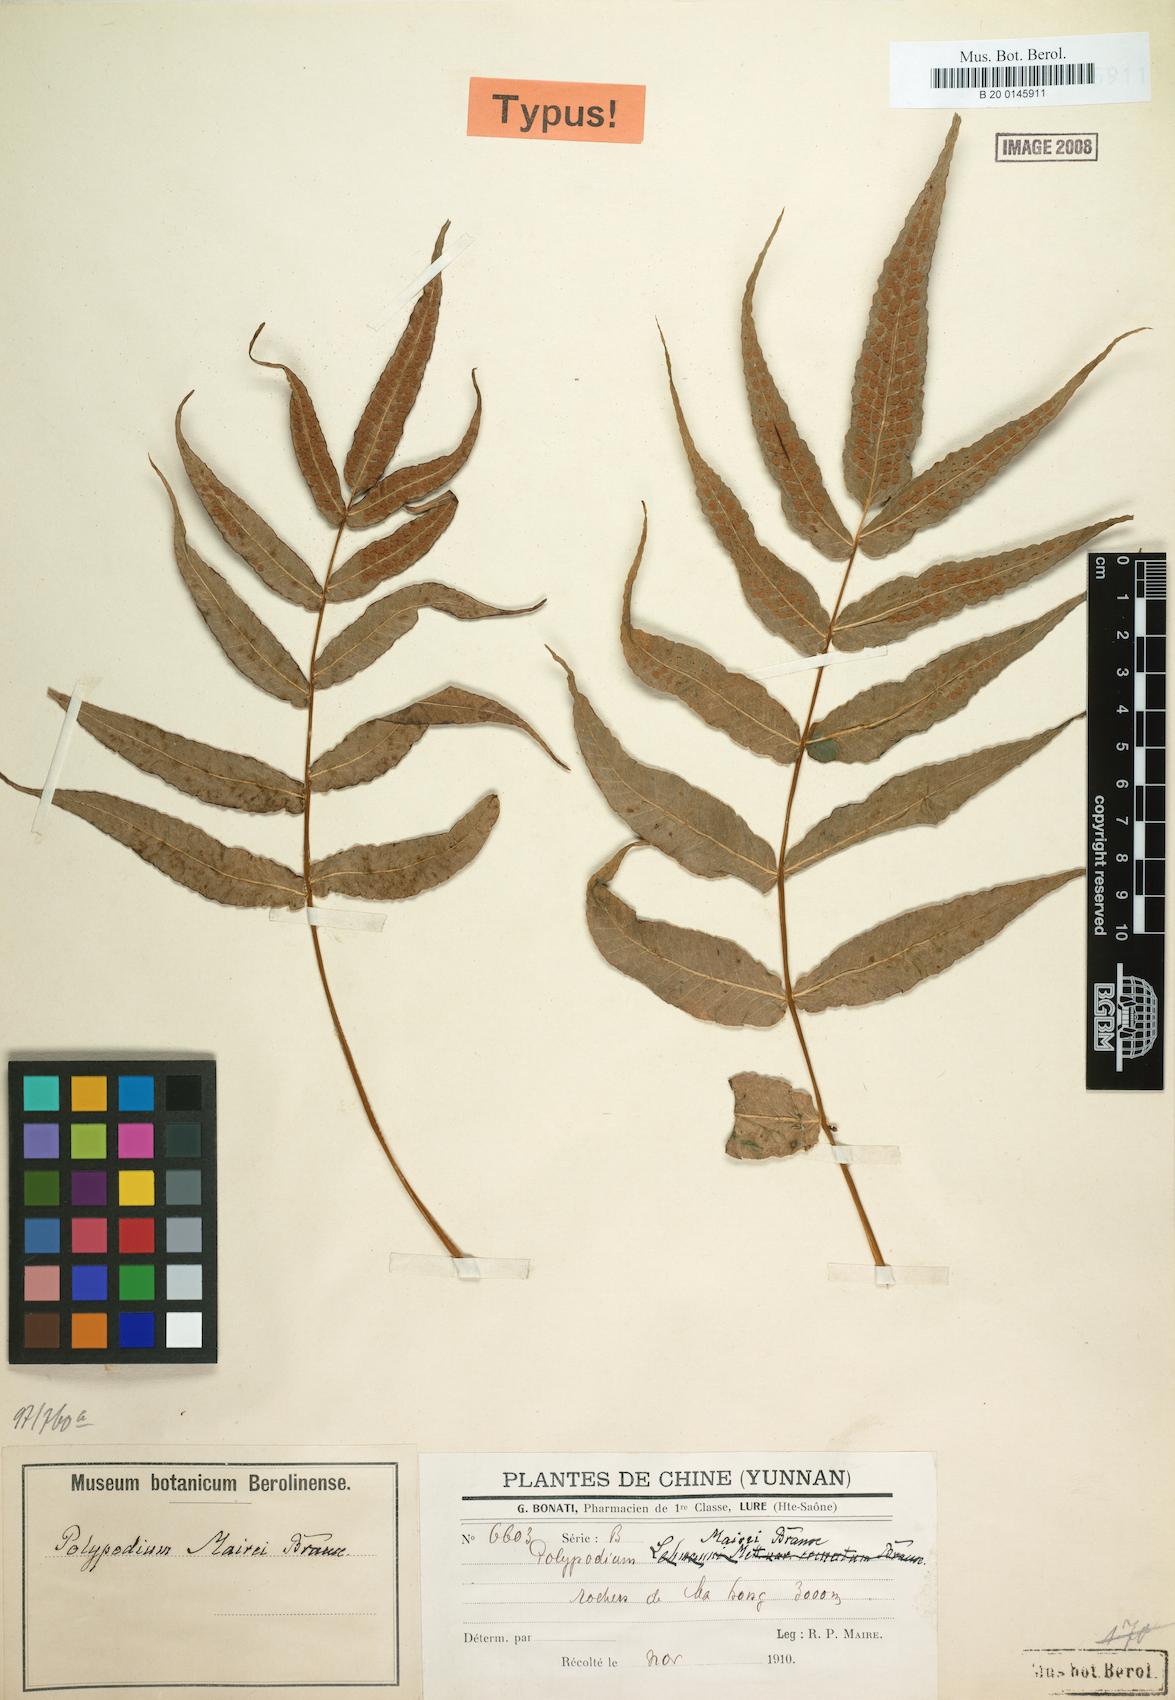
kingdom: Plantae
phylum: Tracheophyta
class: Polypodiopsida
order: Polypodiales
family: Polypodiaceae
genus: Selliguea
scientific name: Selliguea moulmeinensis
